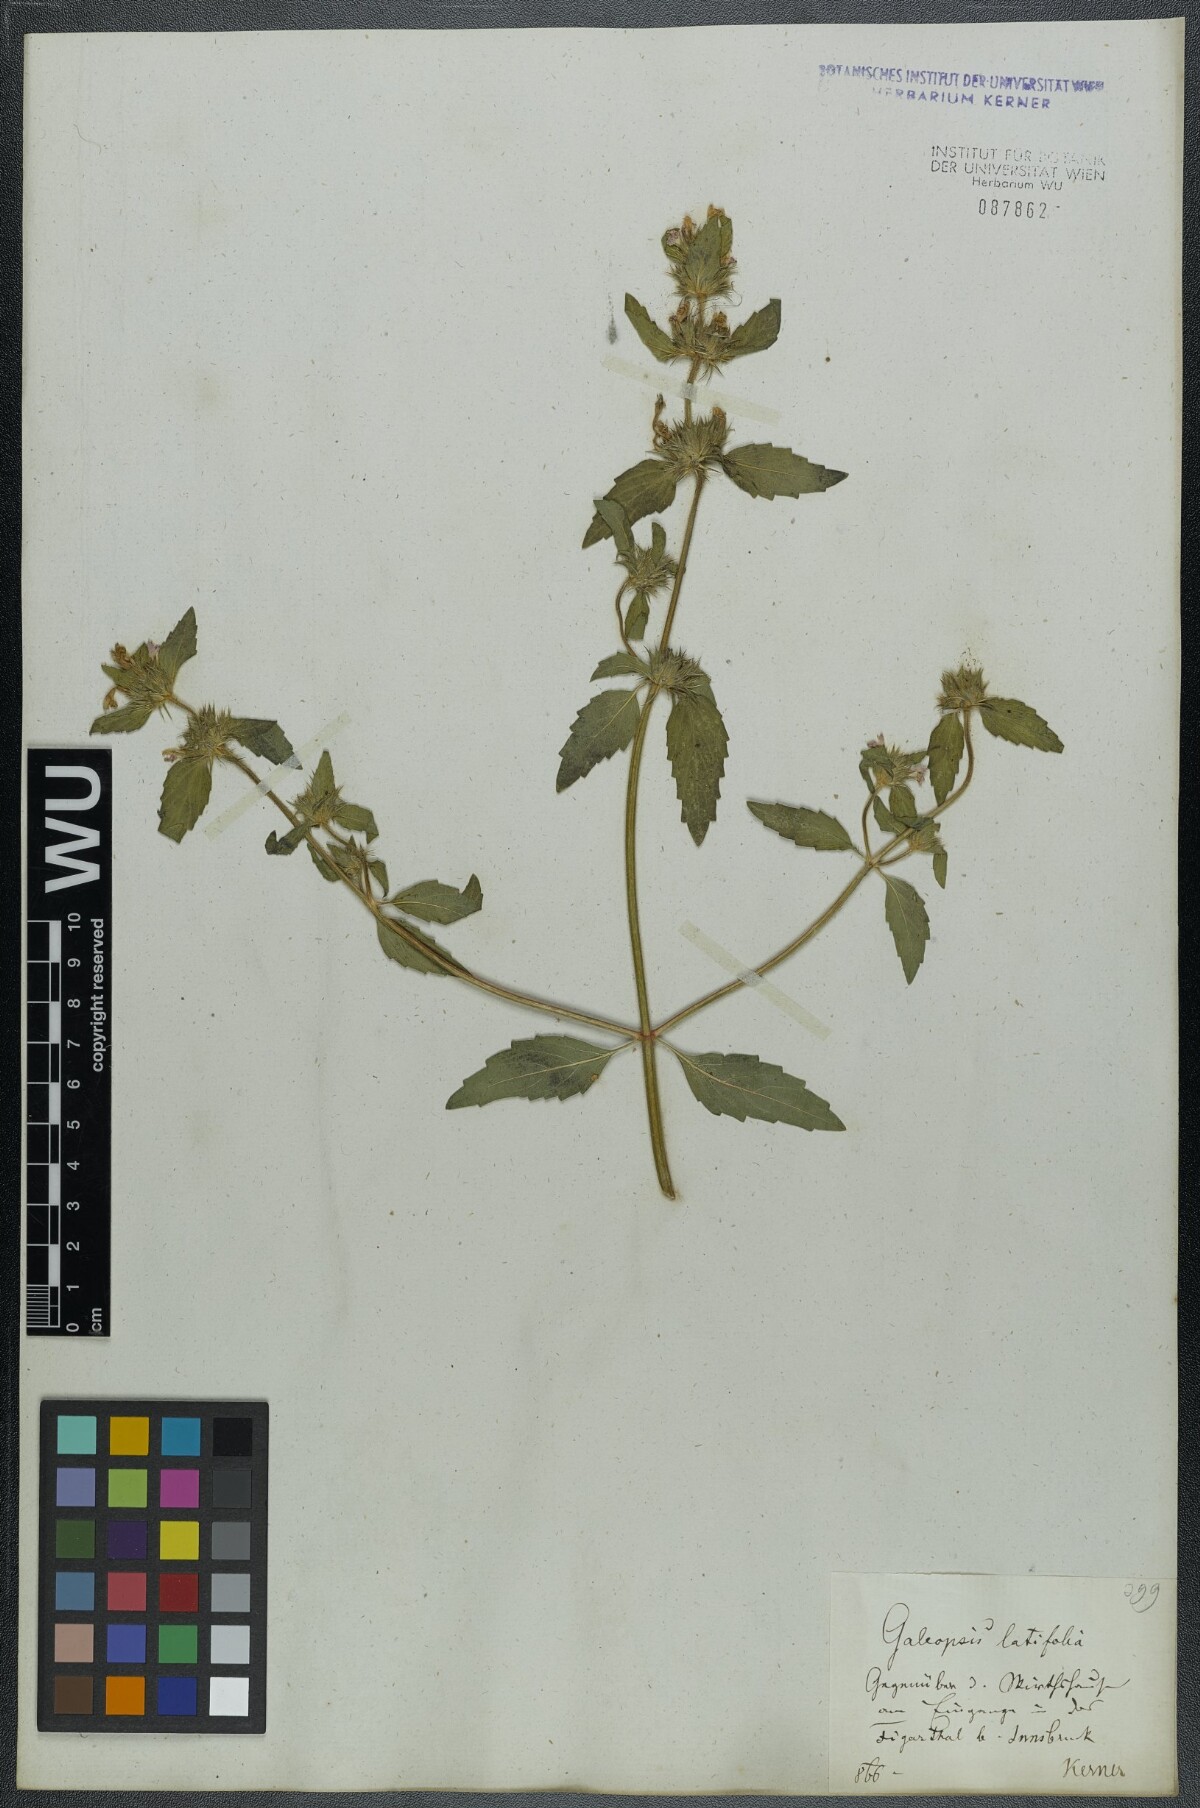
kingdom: Plantae
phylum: Tracheophyta
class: Magnoliopsida
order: Lamiales
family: Lamiaceae
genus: Galeopsis
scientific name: Galeopsis ladanum
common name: Broad-leaved hemp-nettle
